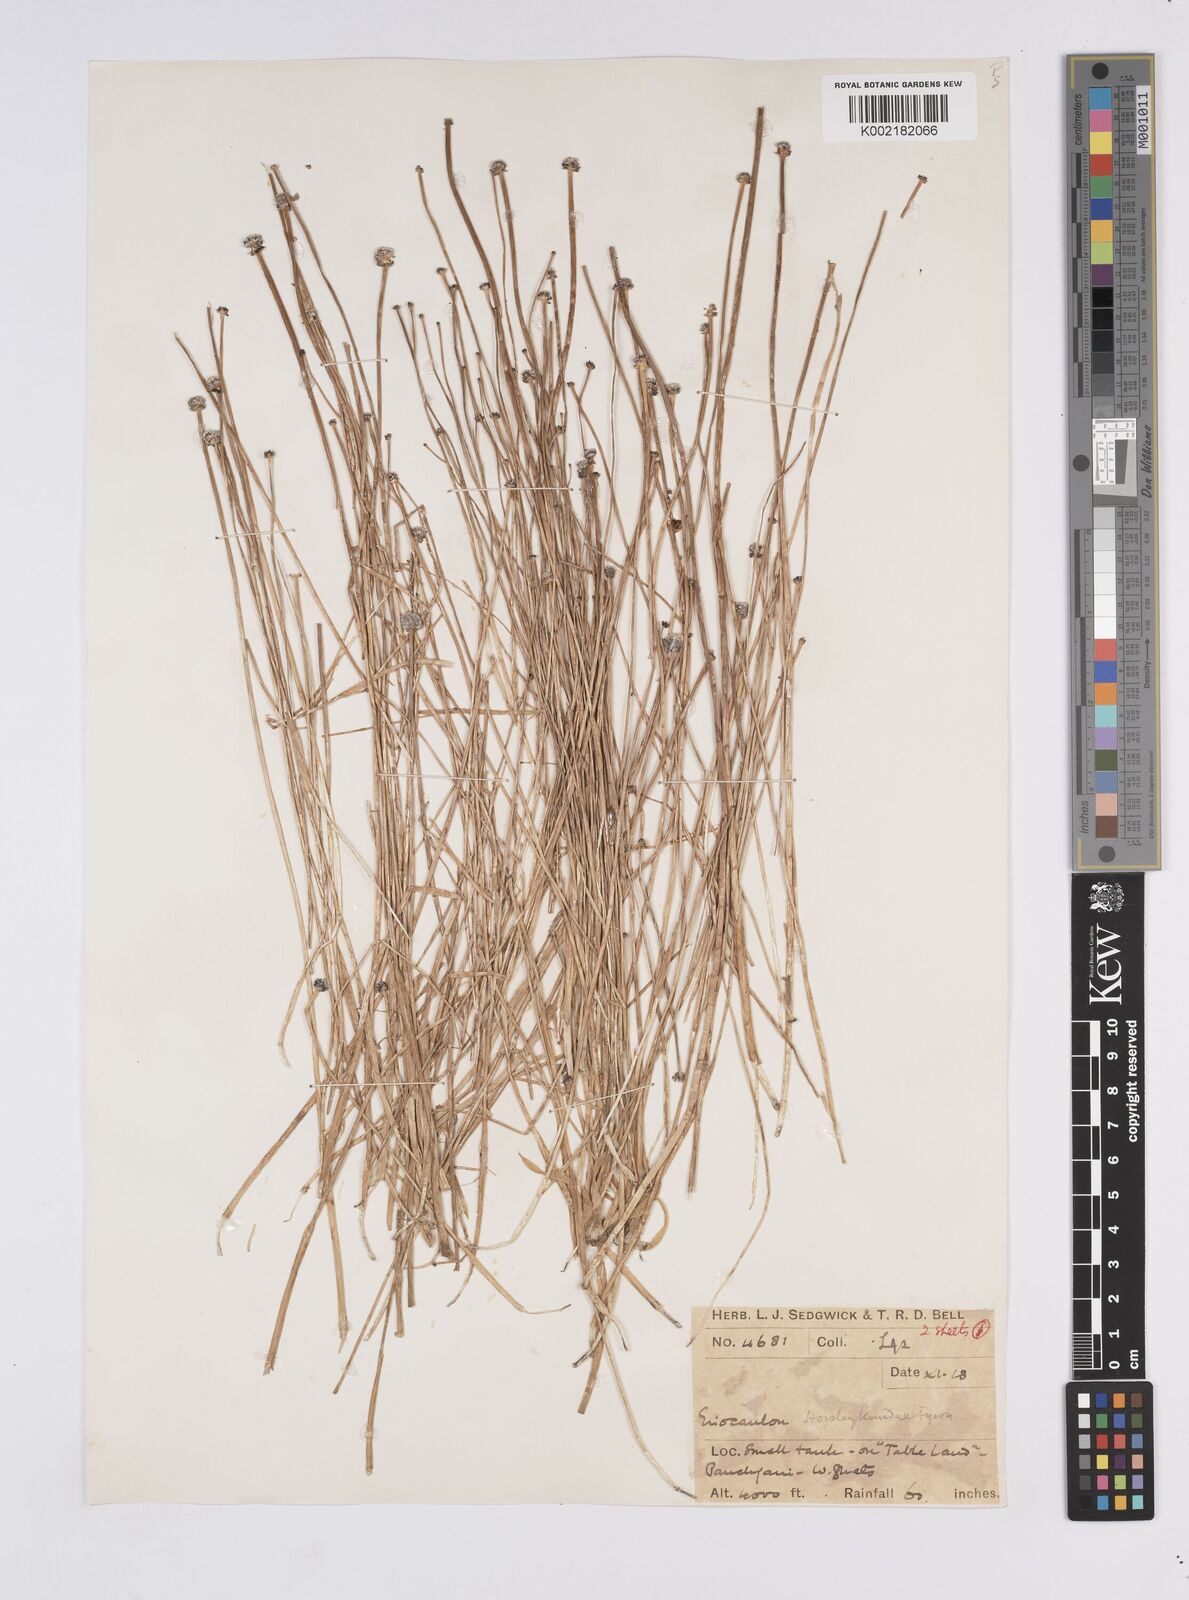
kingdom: Plantae
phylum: Tracheophyta
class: Liliopsida
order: Poales
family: Eriocaulaceae
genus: Eriocaulon
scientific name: Eriocaulon ritchieanum
